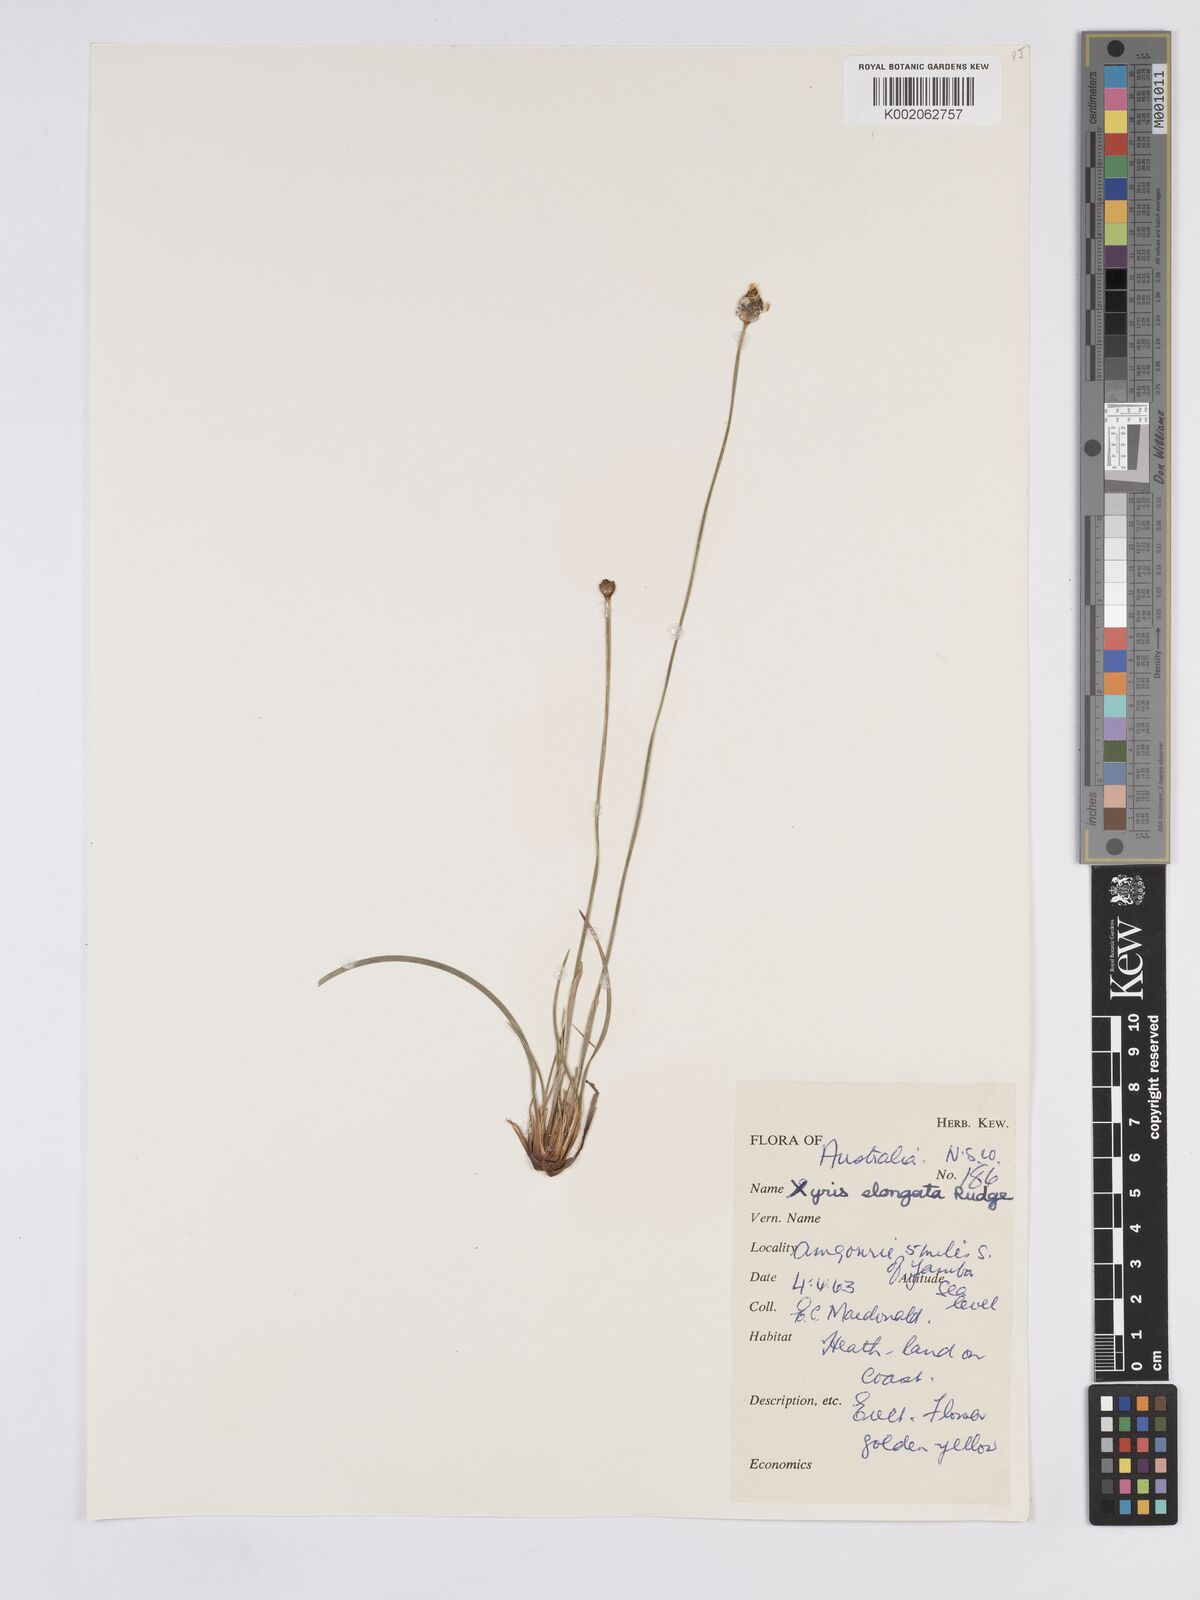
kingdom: Plantae
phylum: Tracheophyta
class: Liliopsida
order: Poales
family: Xyridaceae
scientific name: Xyridaceae
